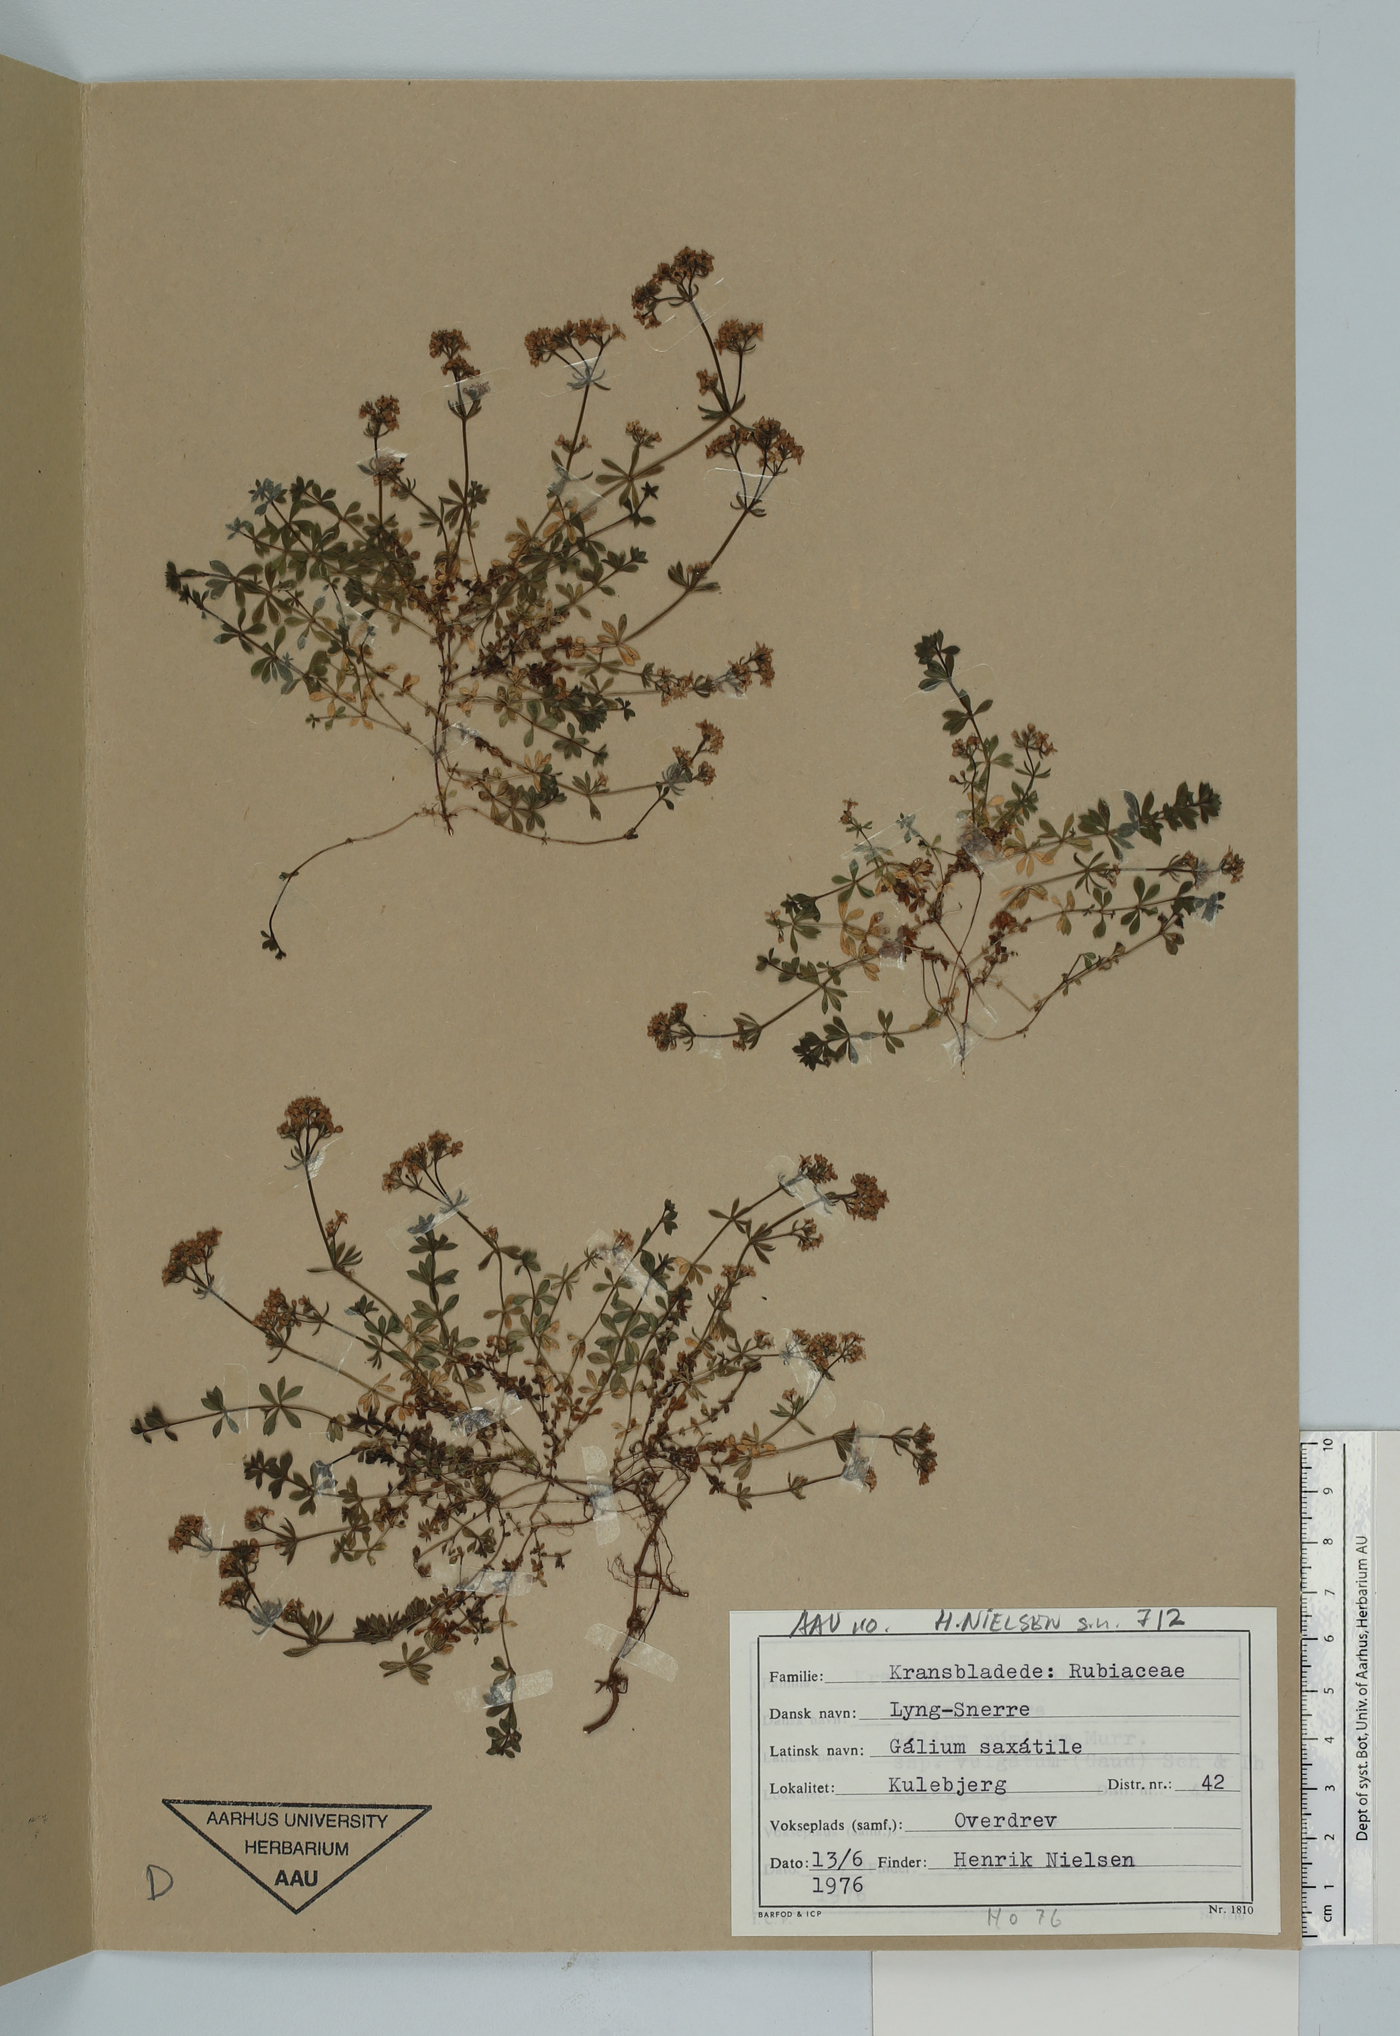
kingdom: Plantae
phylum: Tracheophyta
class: Magnoliopsida
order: Gentianales
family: Rubiaceae
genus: Galium
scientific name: Galium saxatile
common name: Heath bedstraw
